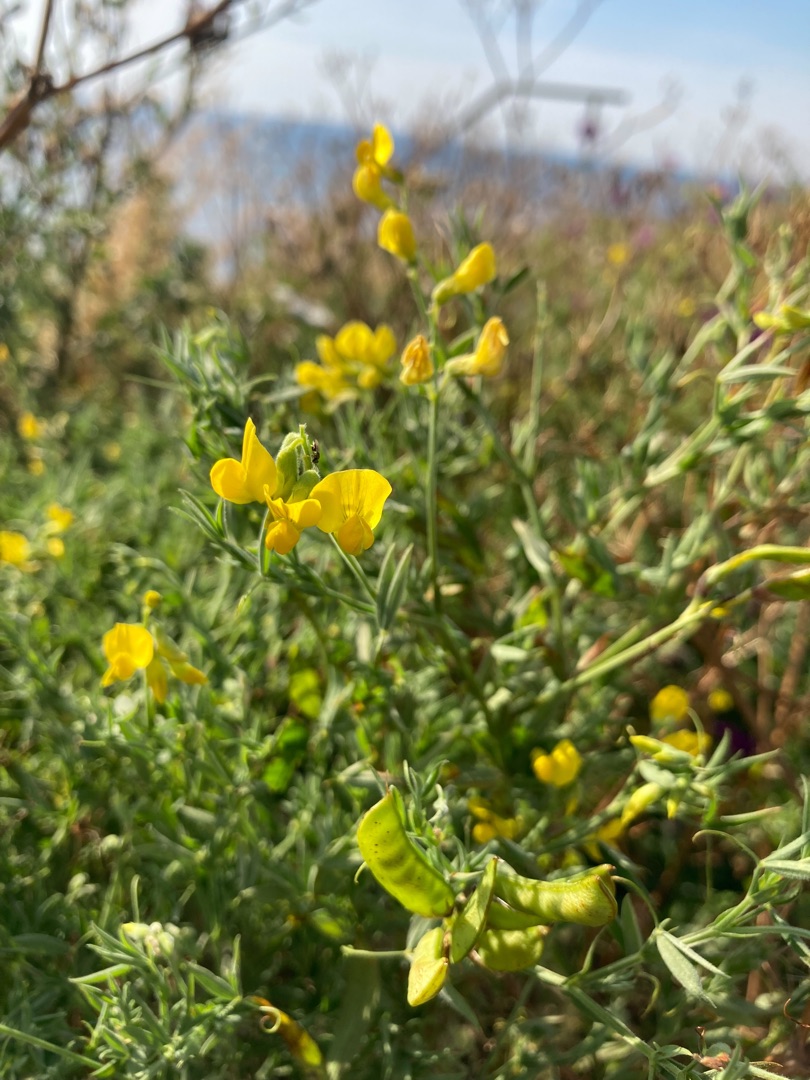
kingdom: Plantae
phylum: Tracheophyta
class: Magnoliopsida
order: Fabales
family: Fabaceae
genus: Lathyrus
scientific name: Lathyrus pratensis
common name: Gul fladbælg
